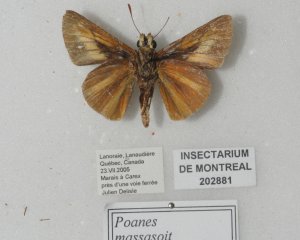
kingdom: Animalia
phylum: Arthropoda
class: Insecta
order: Lepidoptera
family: Hesperiidae
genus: Euphyes
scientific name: Euphyes dion
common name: Dion Skipper
